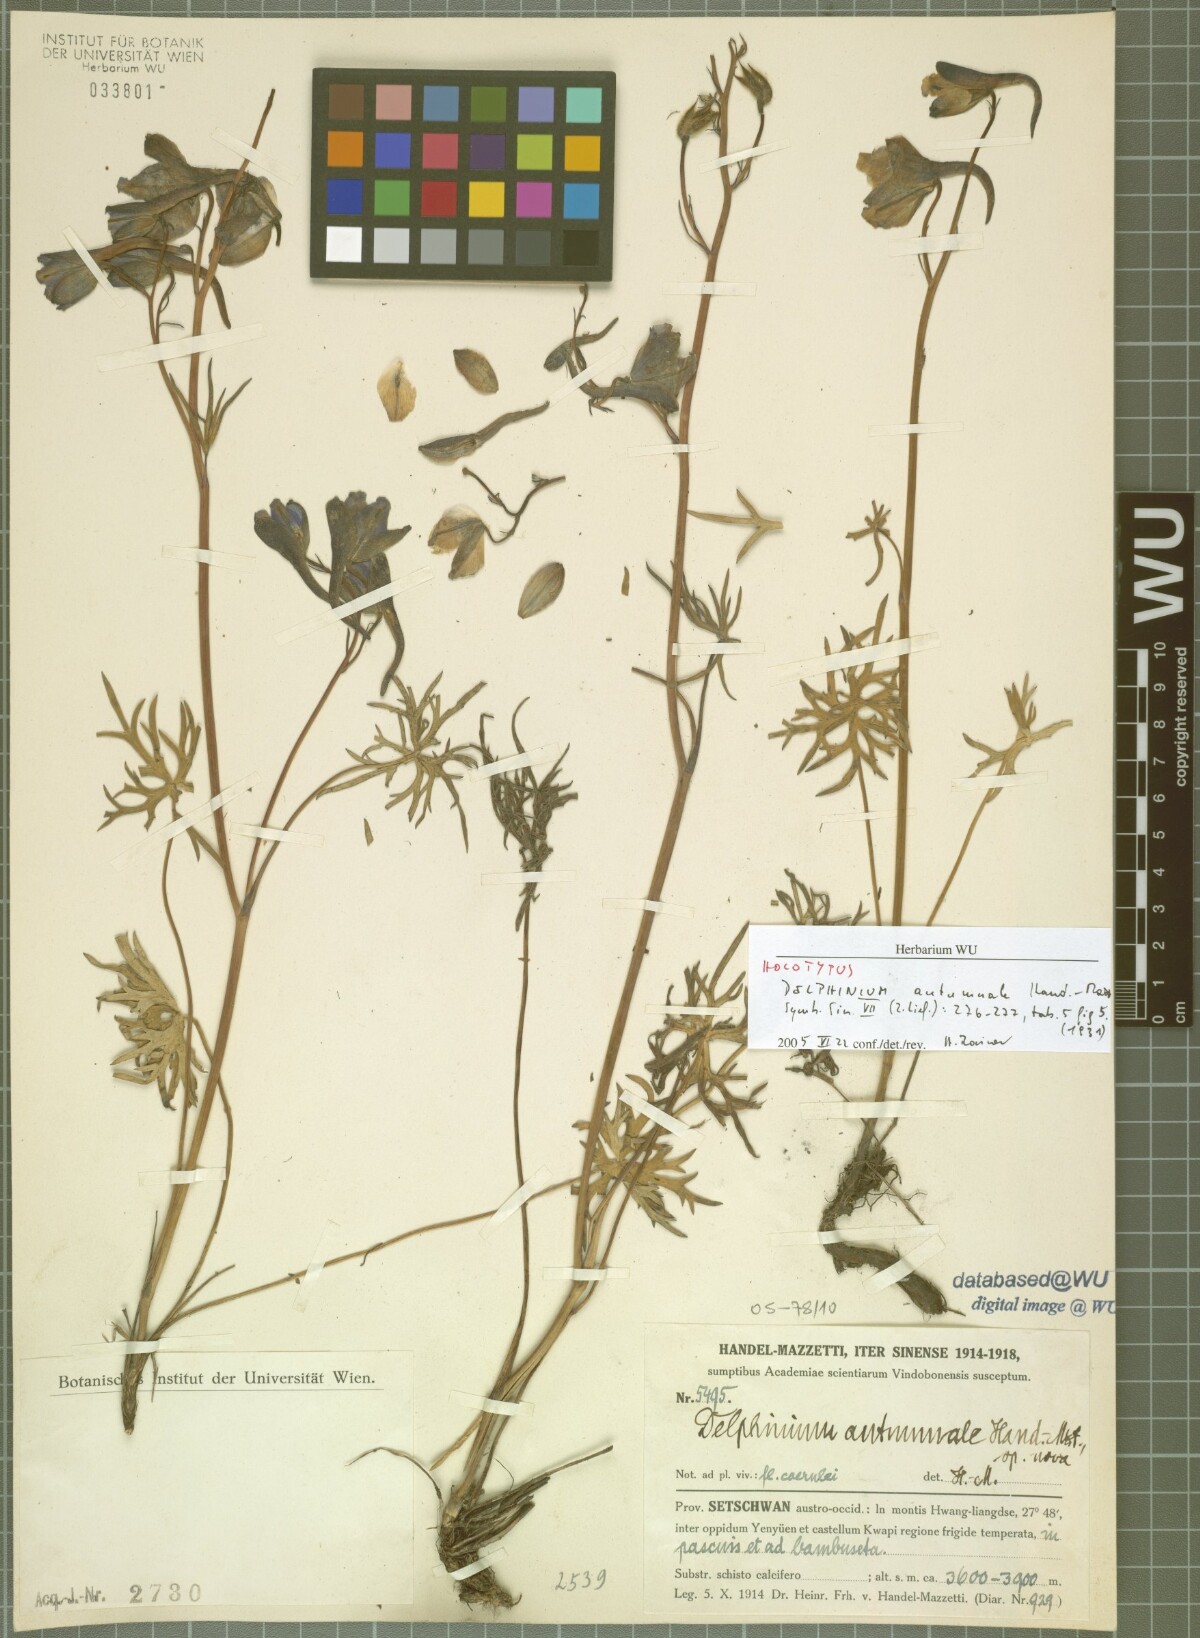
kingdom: Plantae
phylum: Tracheophyta
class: Magnoliopsida
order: Ranunculales
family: Ranunculaceae
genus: Delphinium
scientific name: Delphinium autumnale
